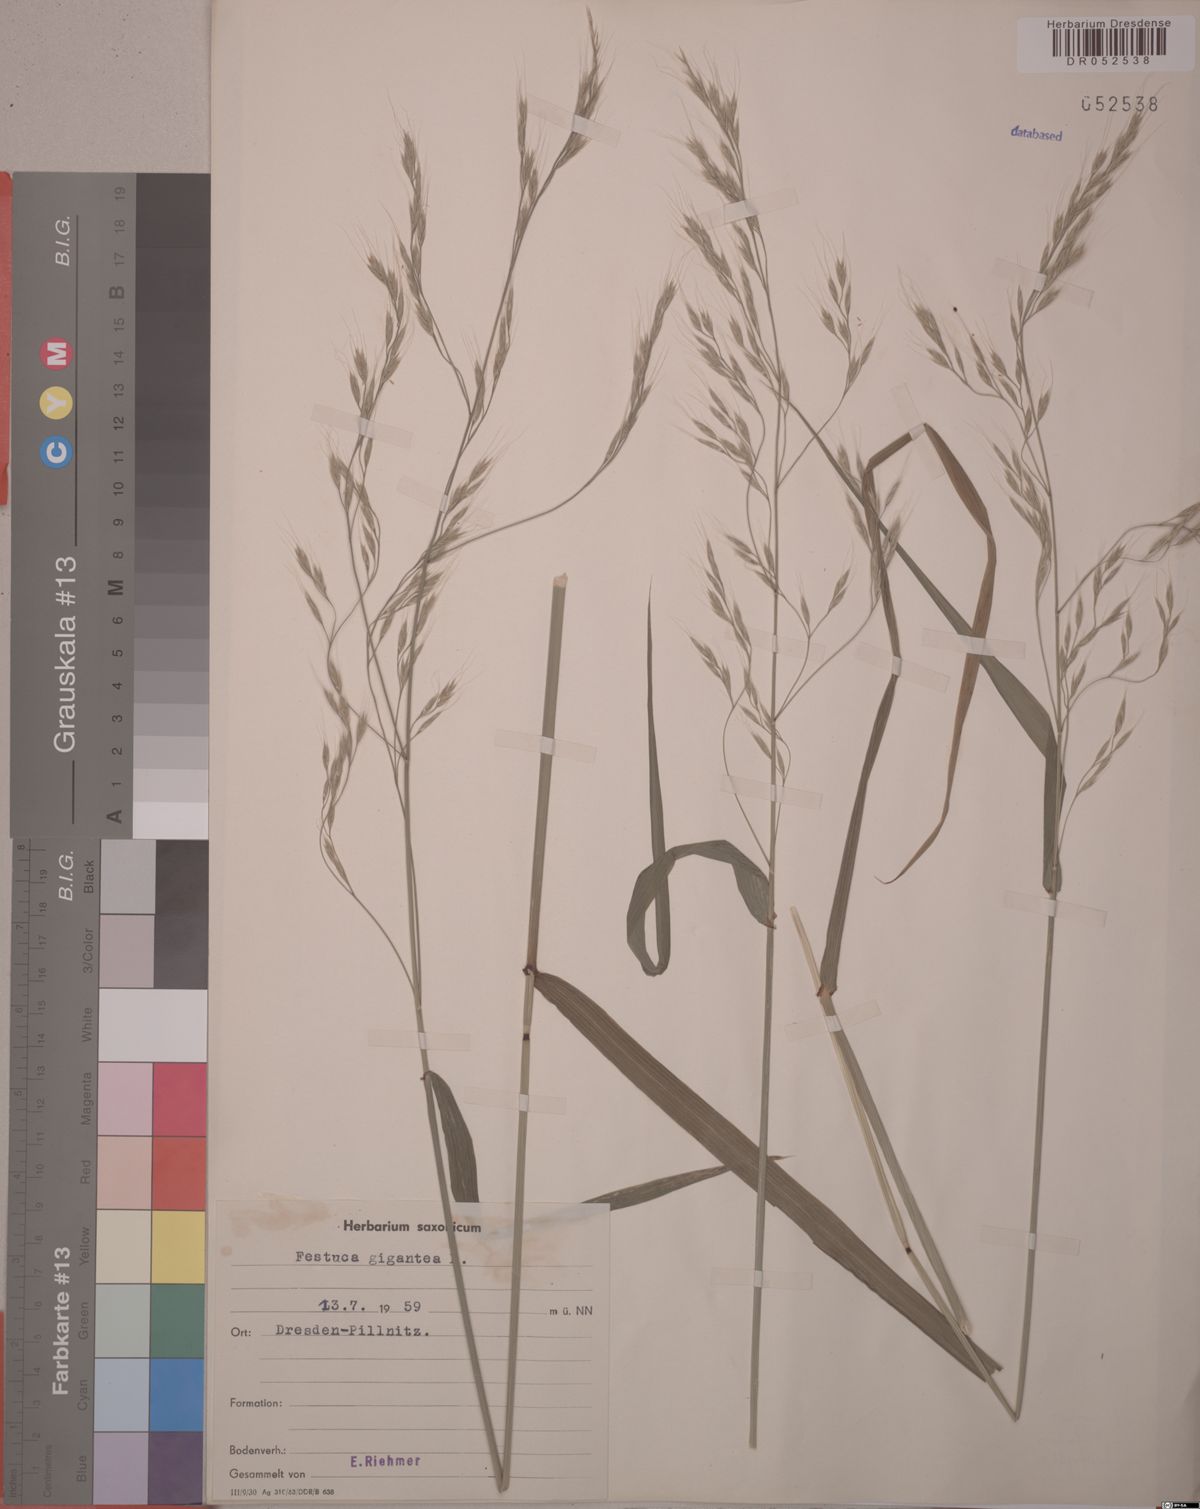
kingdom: Plantae
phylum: Tracheophyta
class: Liliopsida
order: Poales
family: Poaceae
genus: Lolium
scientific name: Lolium giganteum
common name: Giant fescue
